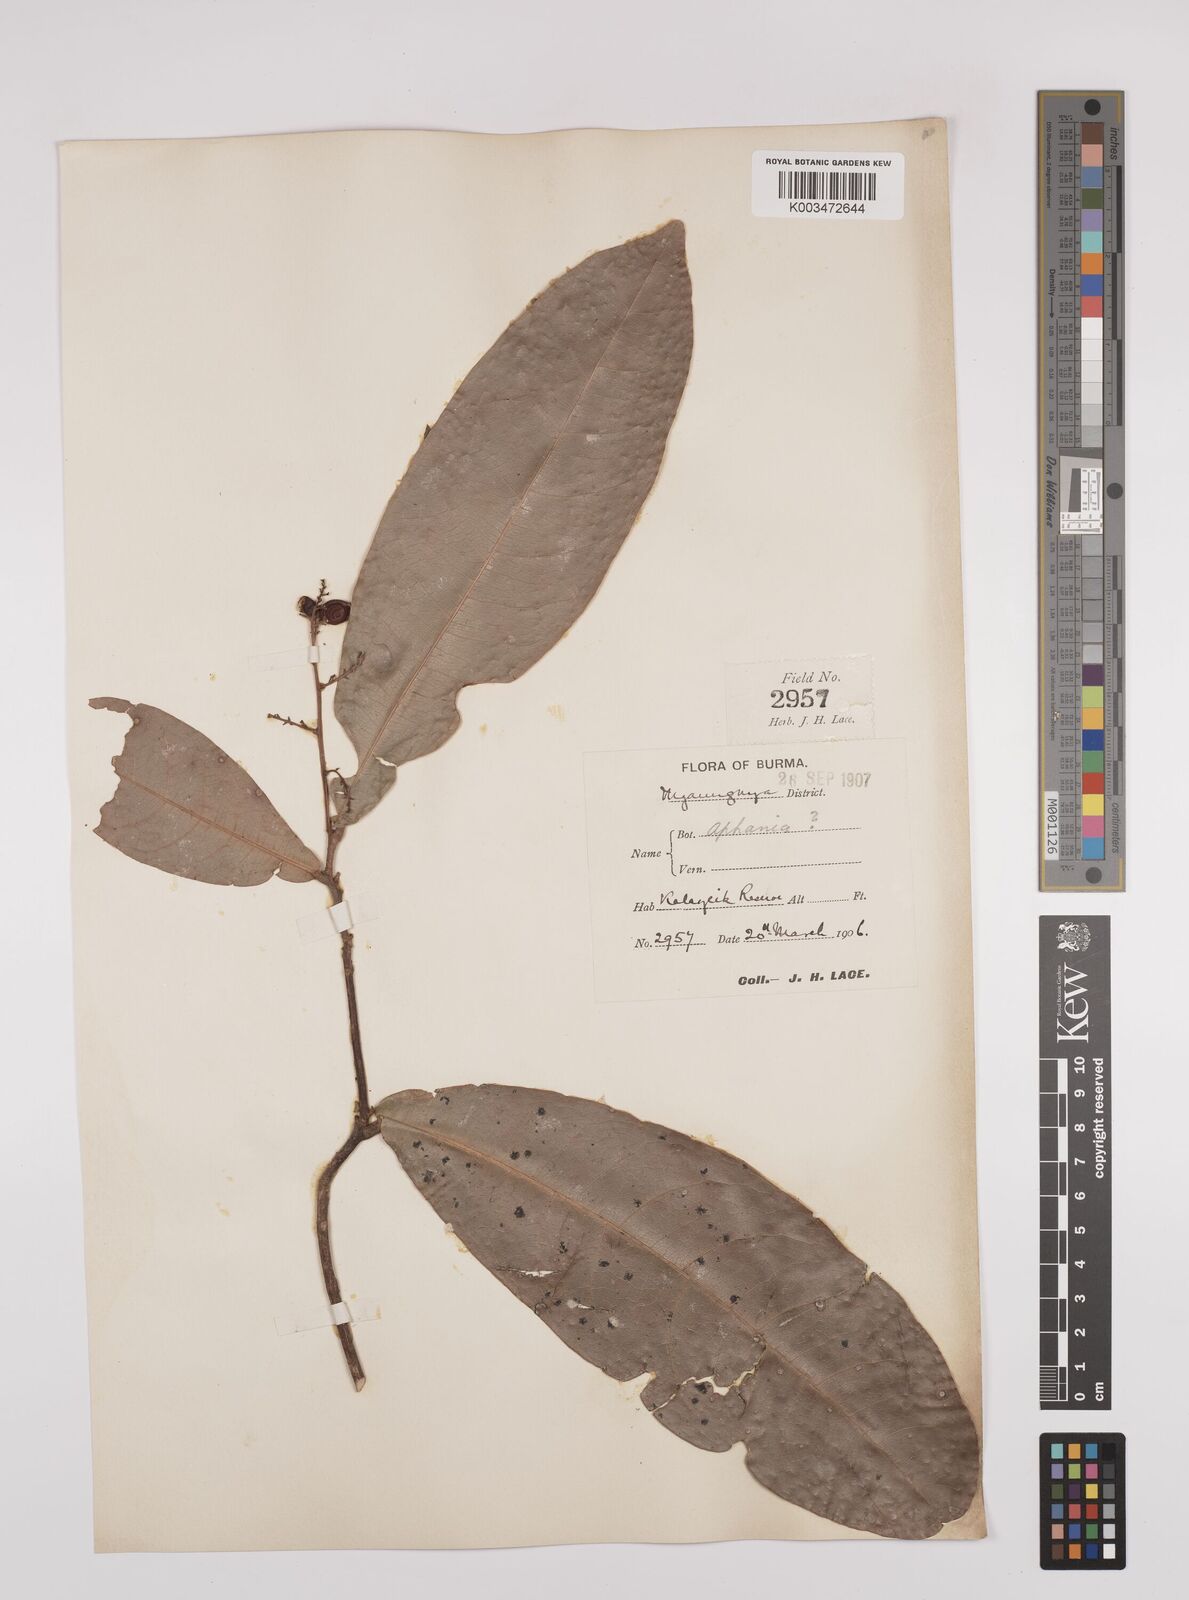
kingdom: Plantae
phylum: Tracheophyta
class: Magnoliopsida
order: Sapindales
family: Sapindaceae
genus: Lepisanthes
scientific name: Lepisanthes senegalensis
